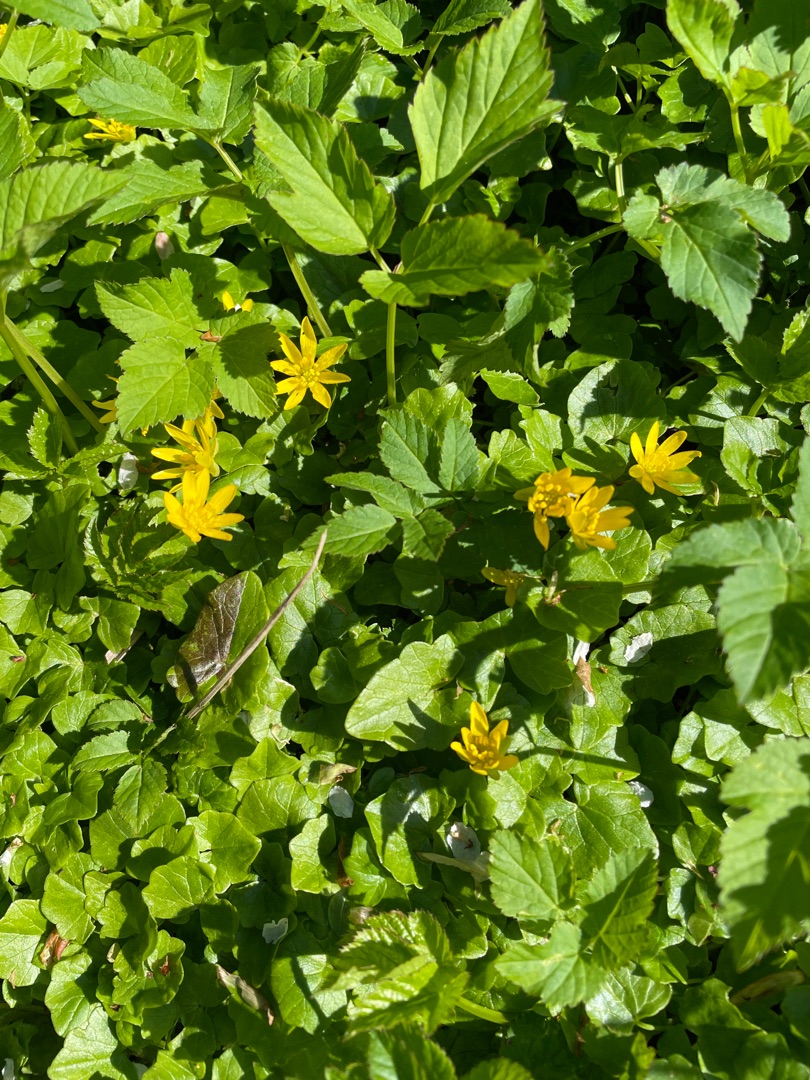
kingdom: Plantae
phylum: Tracheophyta
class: Magnoliopsida
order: Ranunculales
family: Ranunculaceae
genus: Ficaria
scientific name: Ficaria verna
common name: Vorterod
